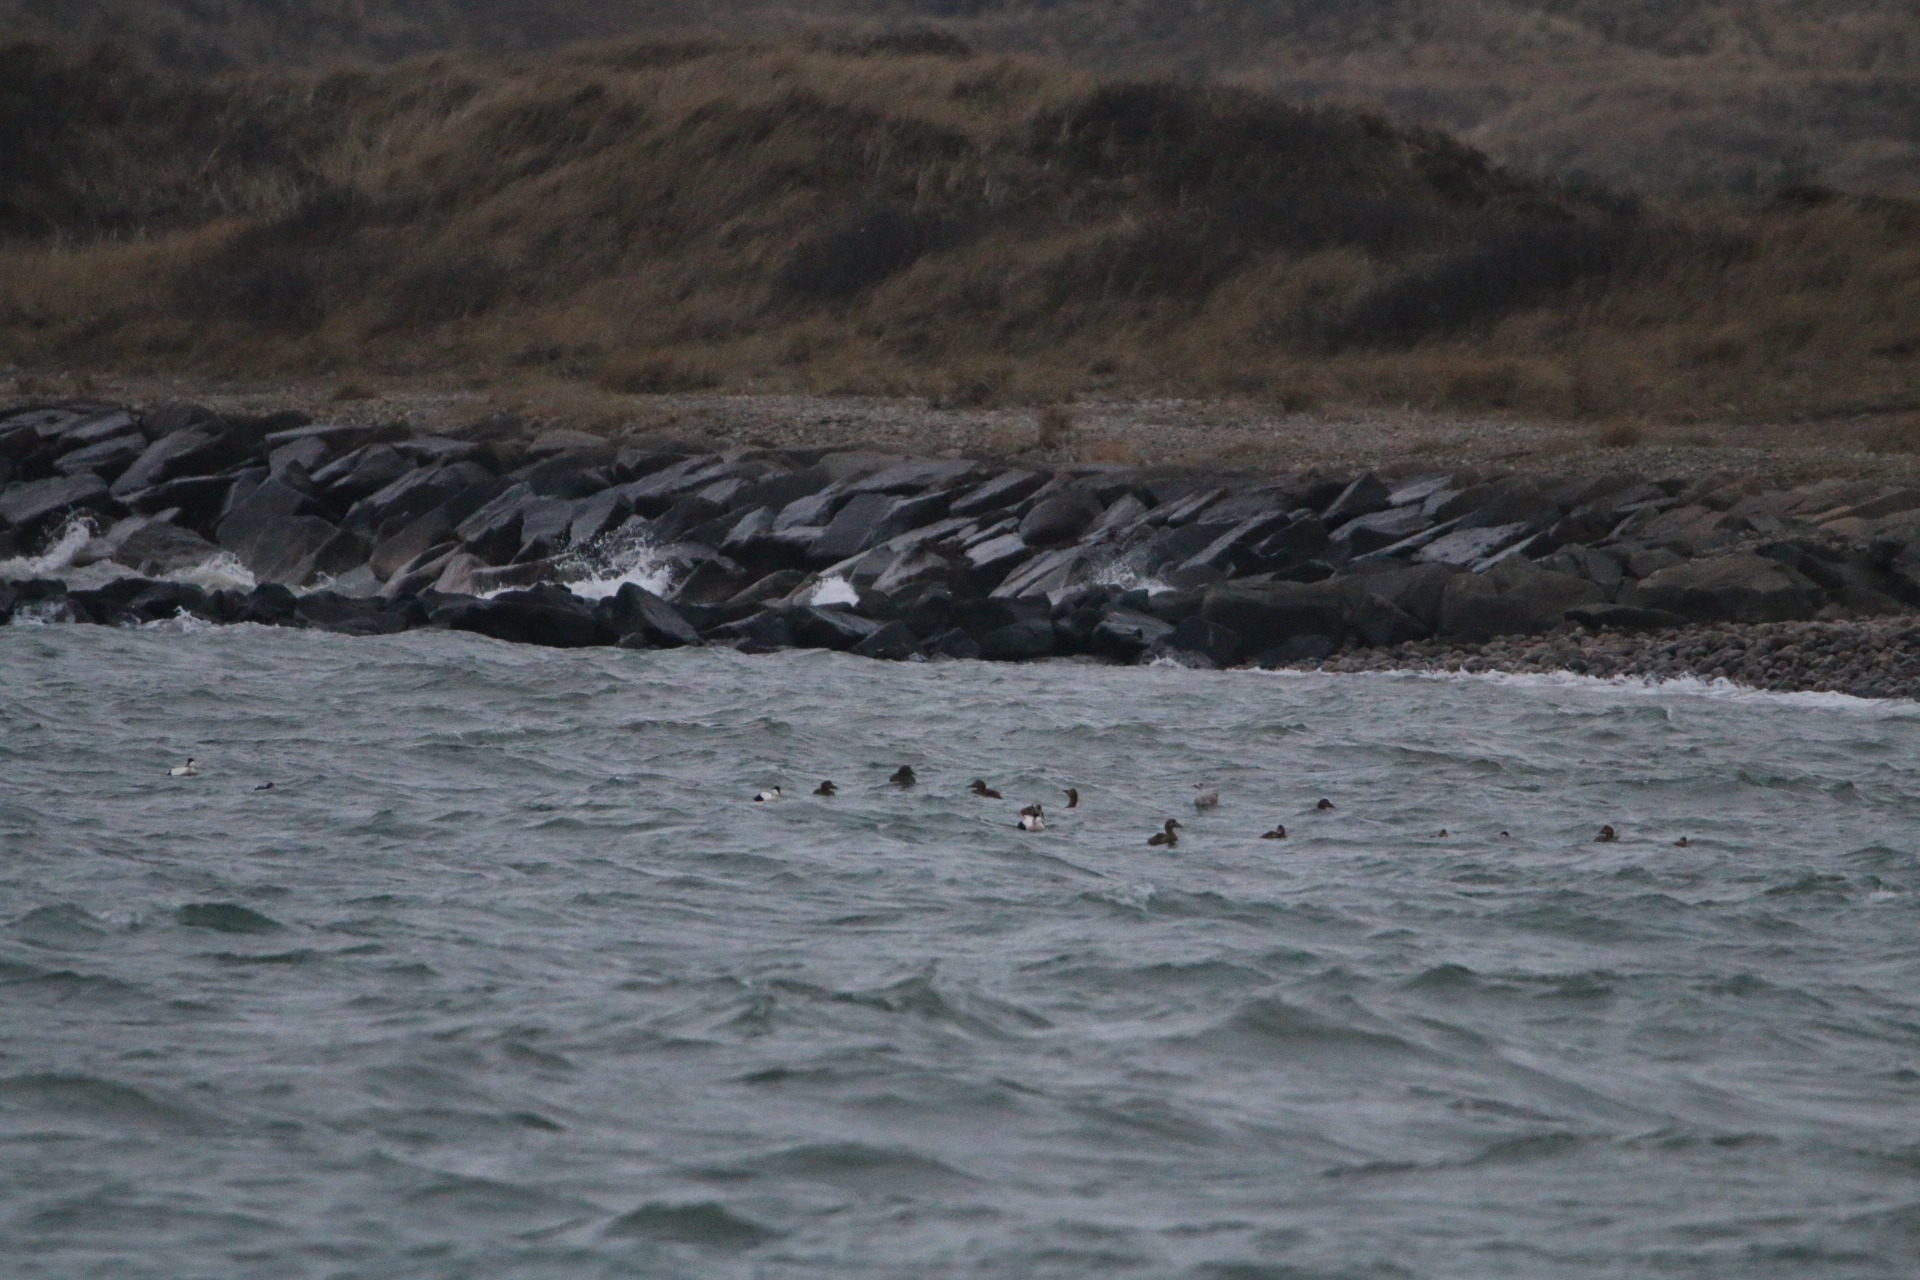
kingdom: Animalia
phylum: Chordata
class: Aves
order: Anseriformes
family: Anatidae
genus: Somateria
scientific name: Somateria mollissima
